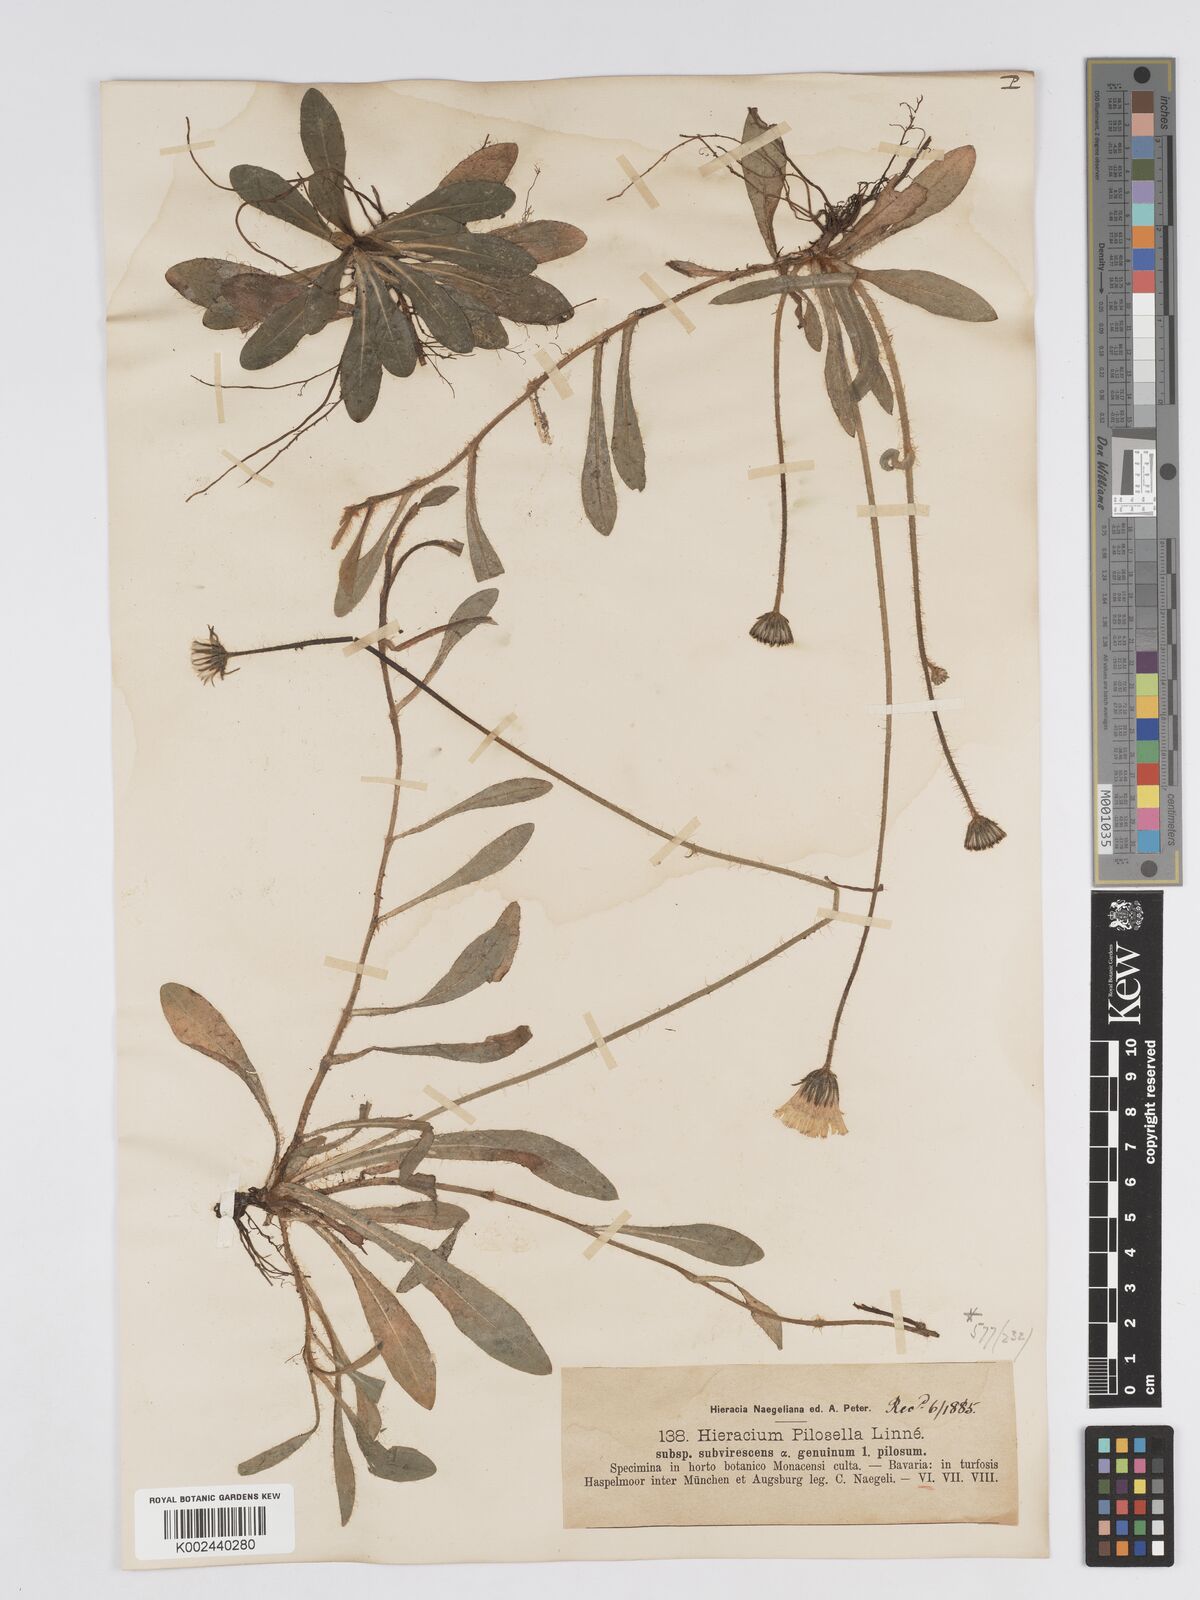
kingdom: Plantae
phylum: Tracheophyta
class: Magnoliopsida
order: Asterales
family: Asteraceae
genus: Pilosella
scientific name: Pilosella officinarum
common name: Mouse-ear hawkweed
